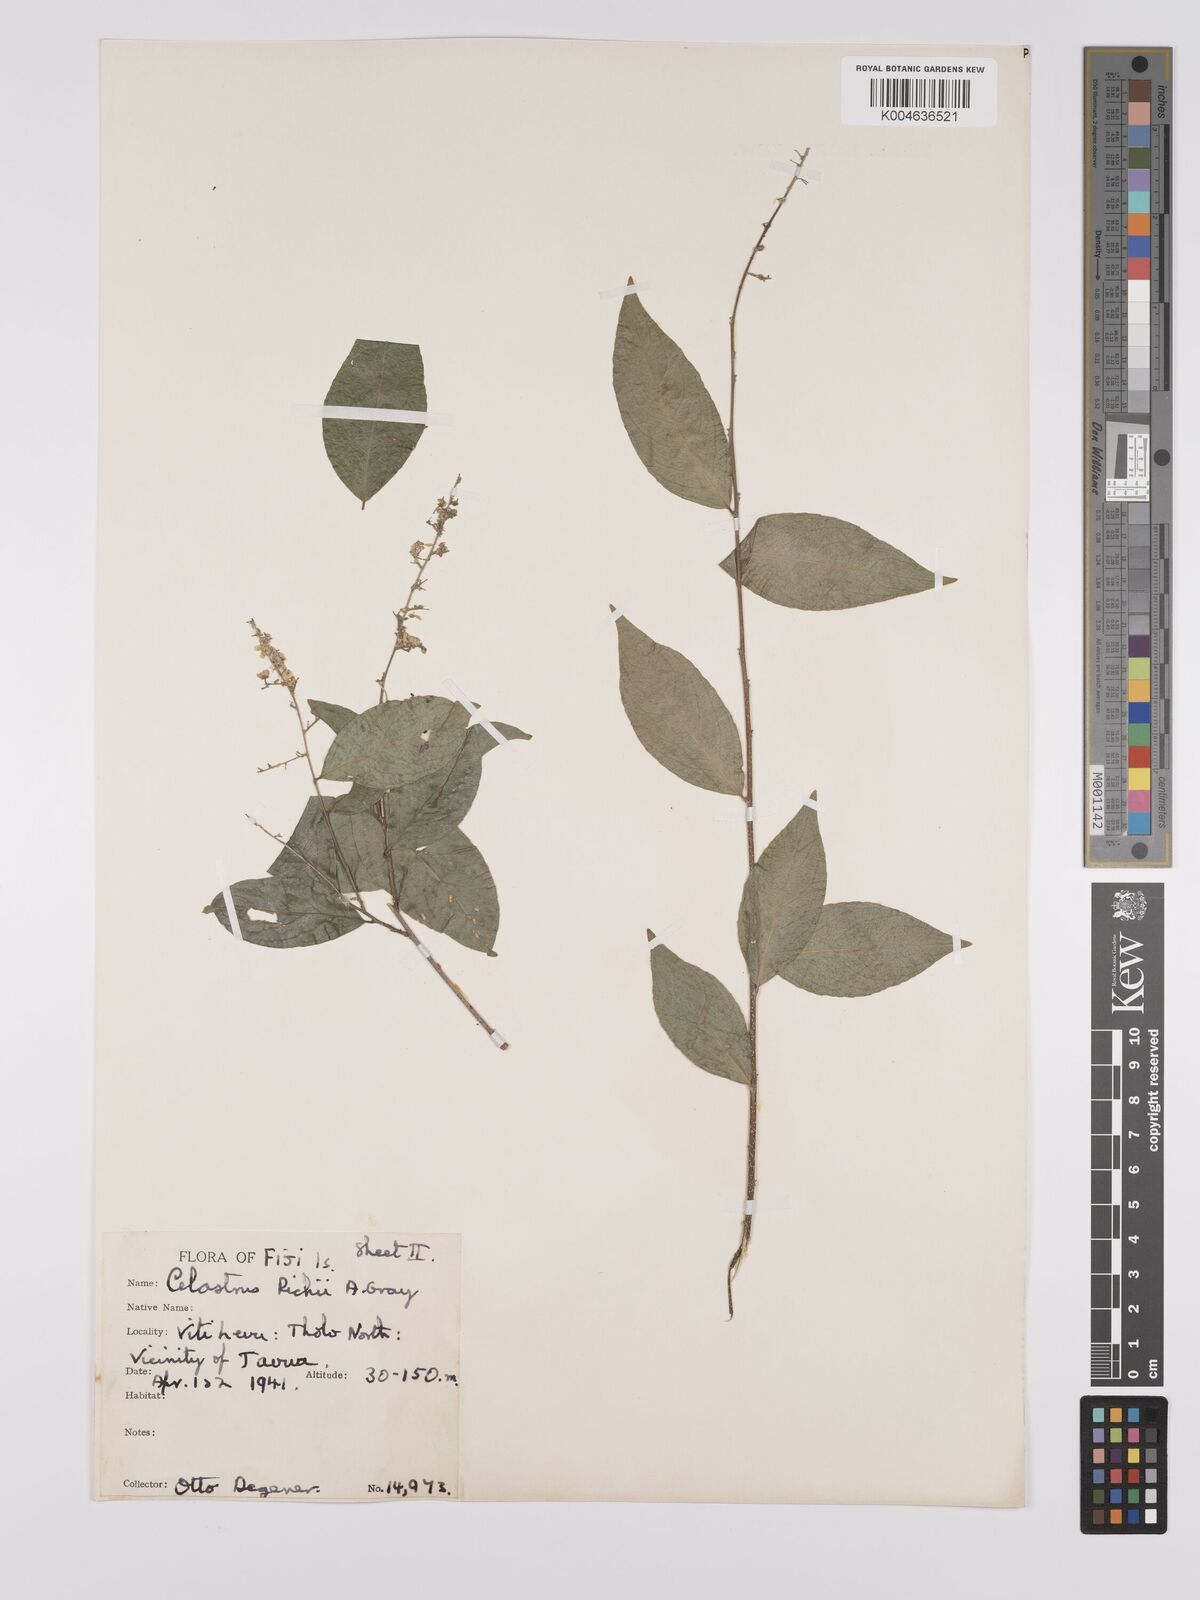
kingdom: Plantae
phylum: Tracheophyta
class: Magnoliopsida
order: Celastrales
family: Celastraceae
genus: Celastrus
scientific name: Celastrus richii
